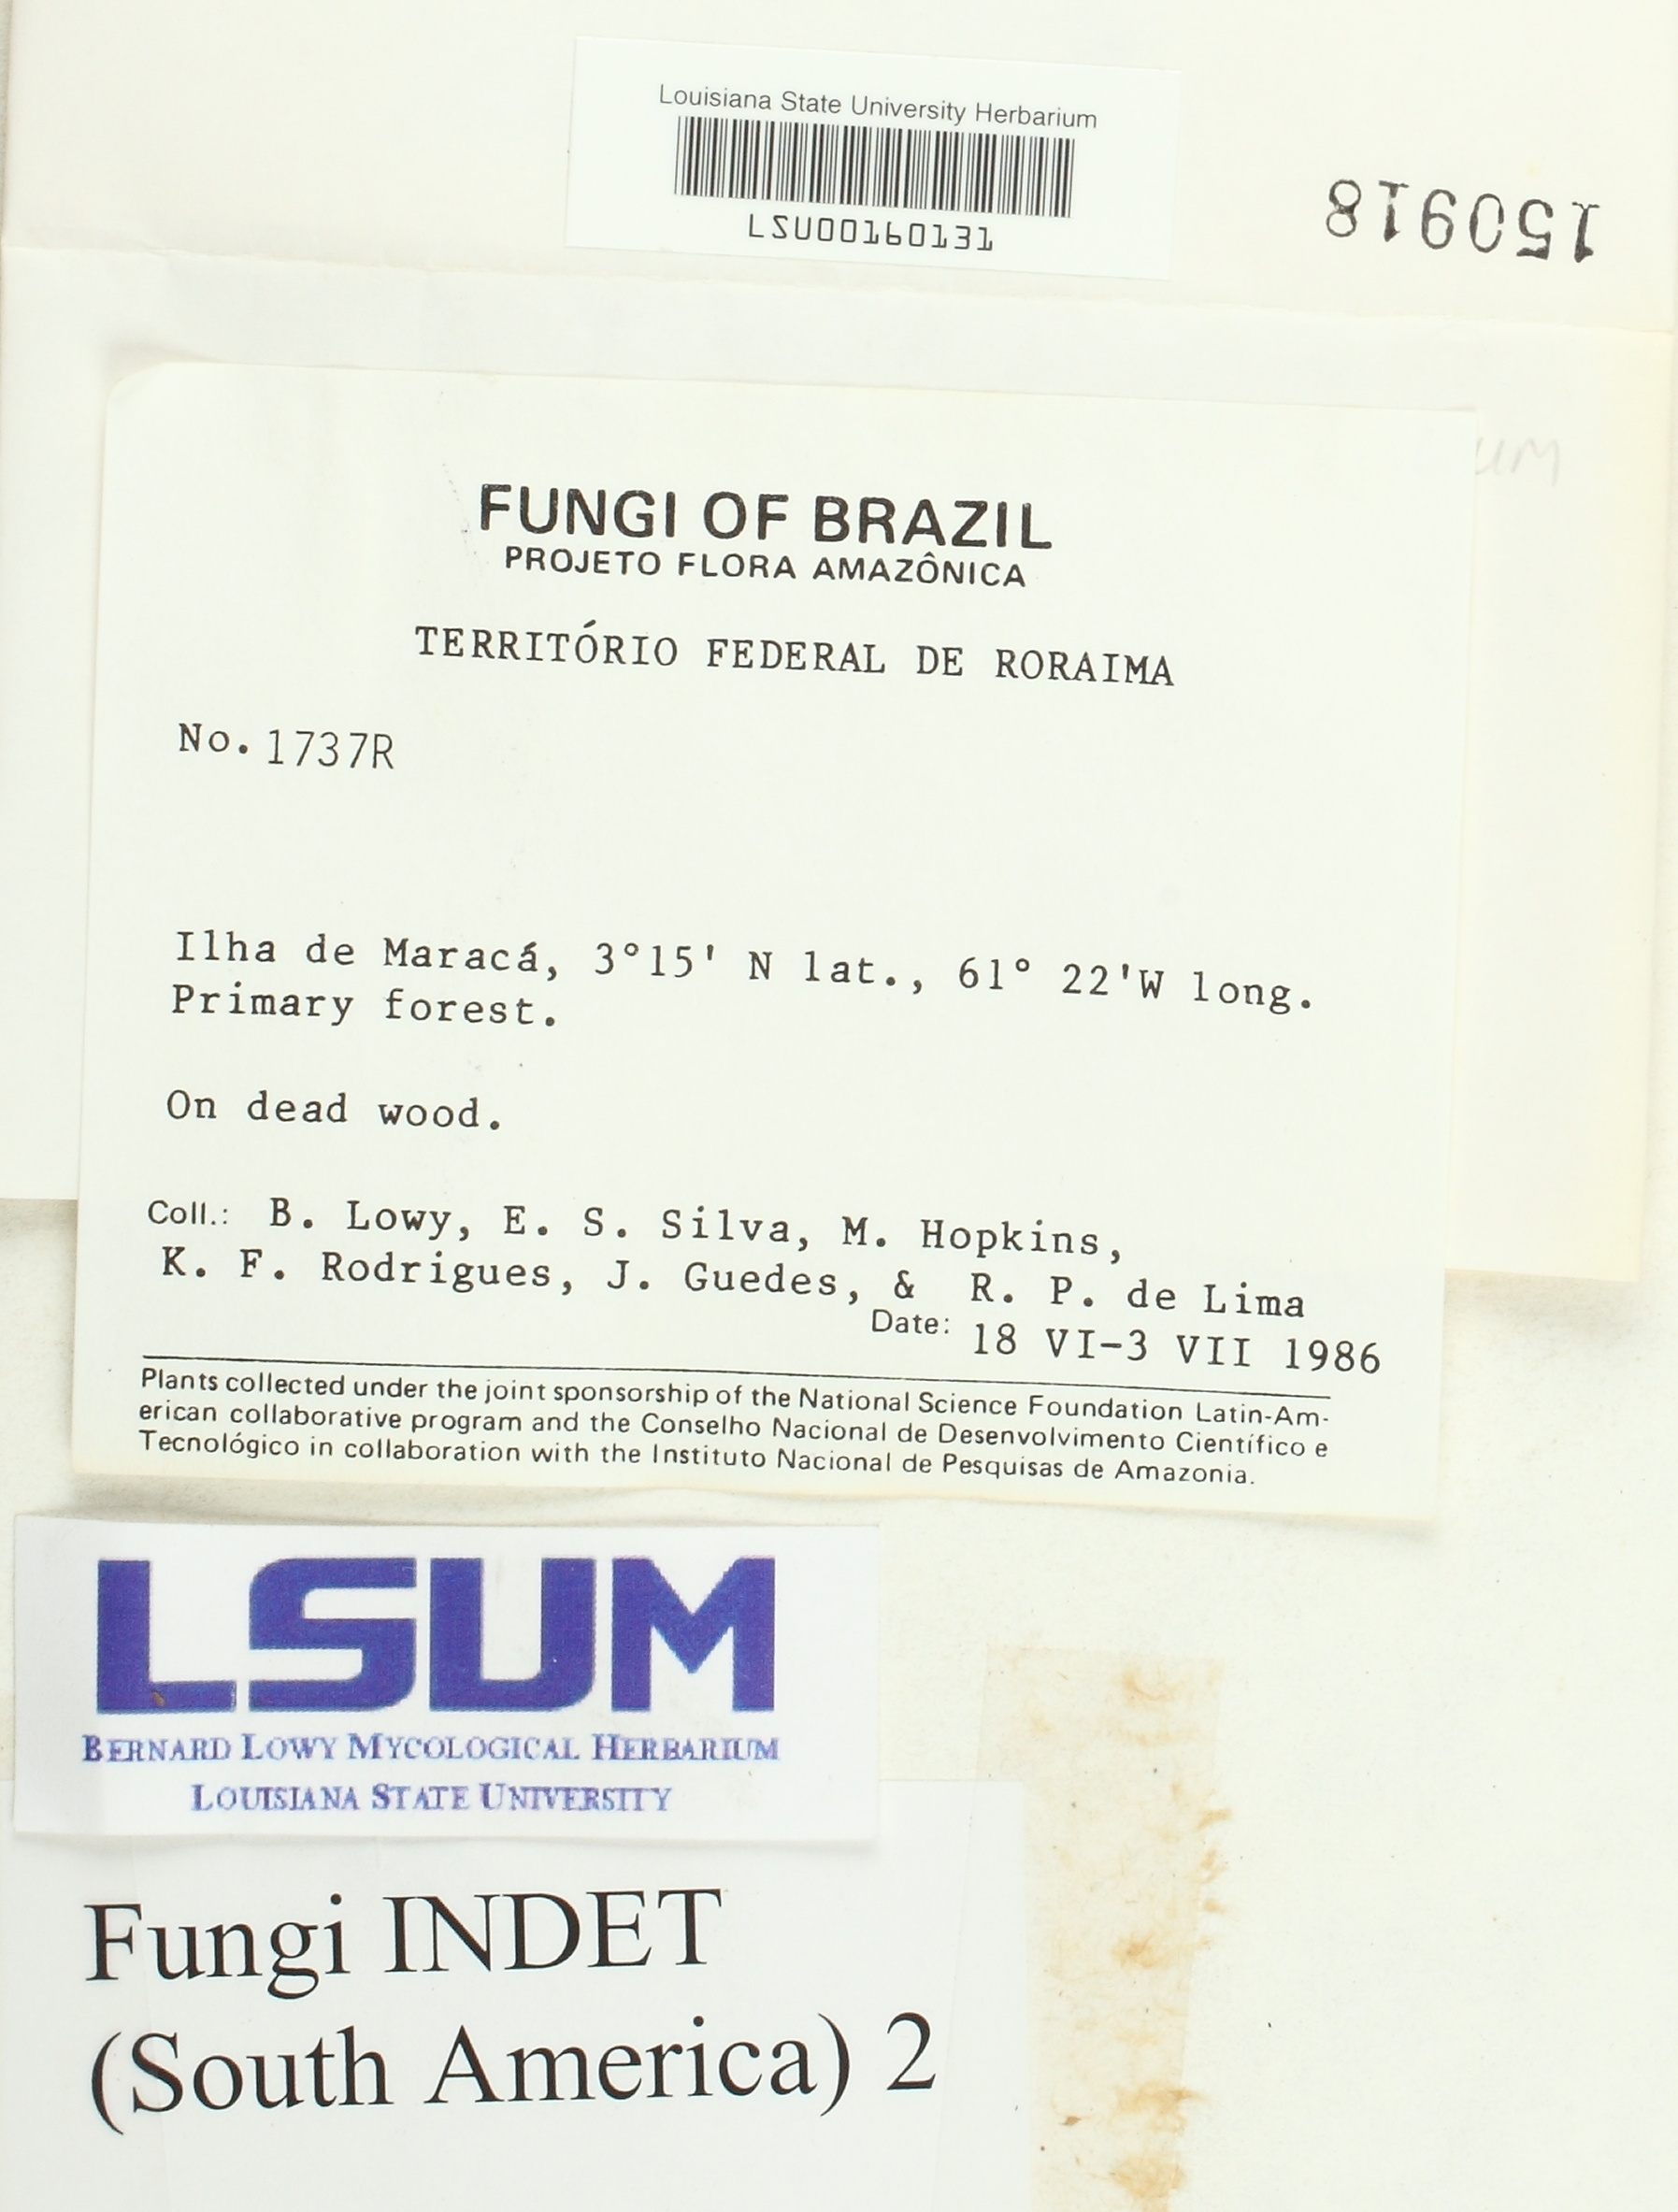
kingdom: Fungi
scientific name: Fungi
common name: Fungi
